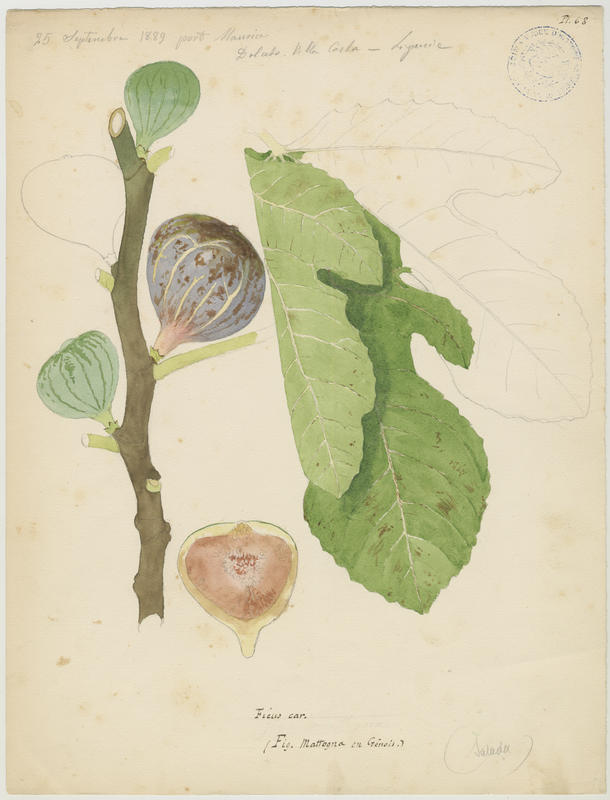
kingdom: Plantae
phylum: Tracheophyta
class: Magnoliopsida
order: Rosales
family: Moraceae
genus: Ficus
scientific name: Ficus carica
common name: Fig
